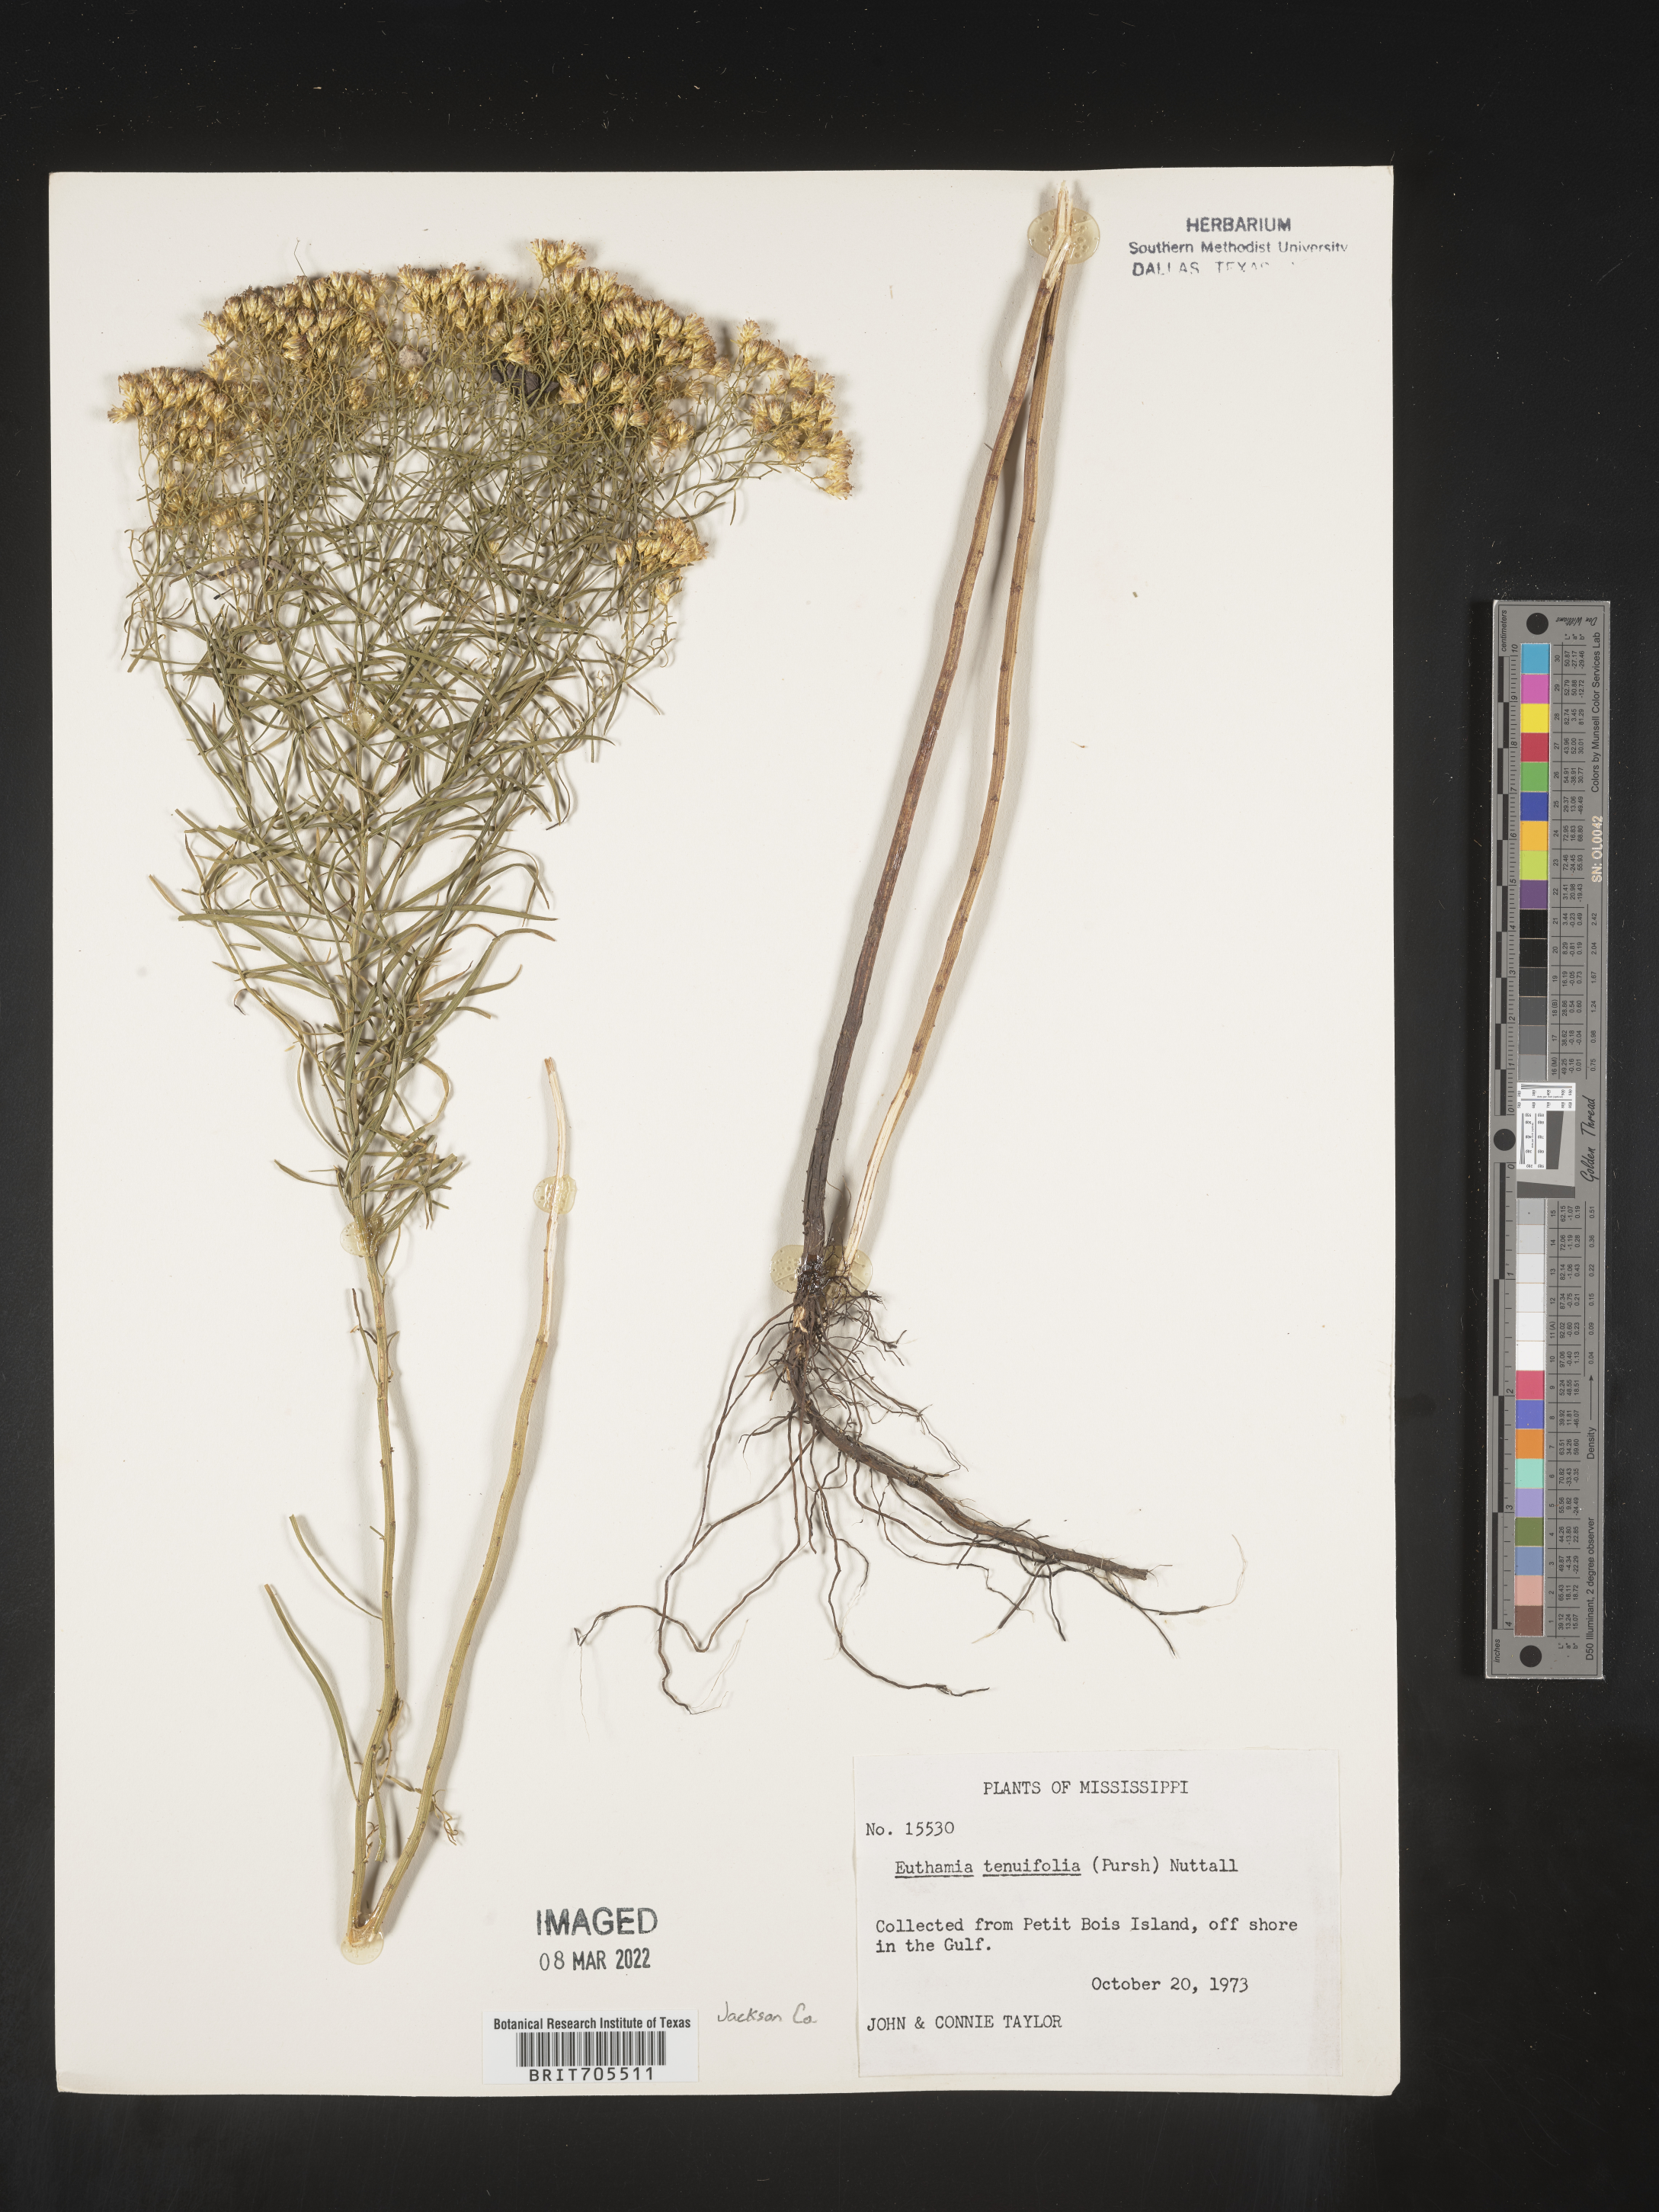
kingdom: Plantae
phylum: Tracheophyta
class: Magnoliopsida
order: Asterales
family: Asteraceae
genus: Euthamia
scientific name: Euthamia caroliniana
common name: Coastal plain goldentop
